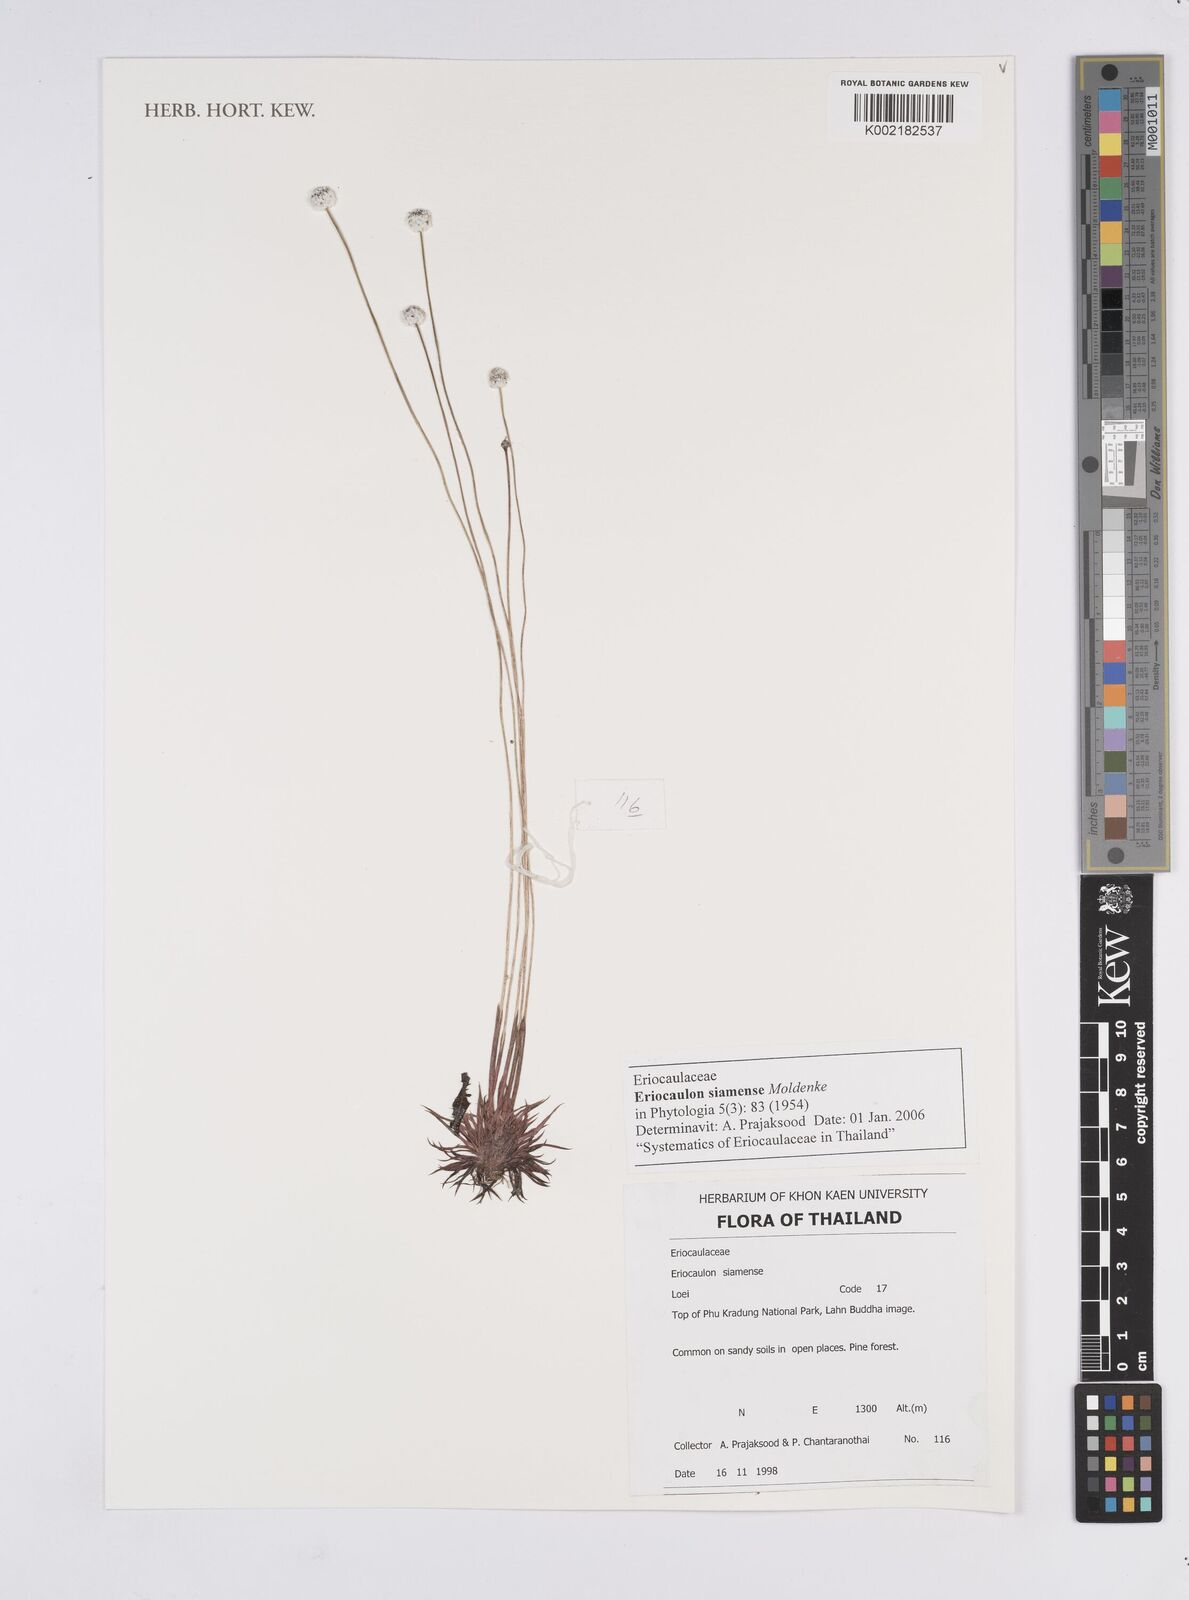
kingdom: Plantae
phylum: Tracheophyta
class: Liliopsida
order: Poales
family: Eriocaulaceae
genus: Eriocaulon
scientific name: Eriocaulon siamense
